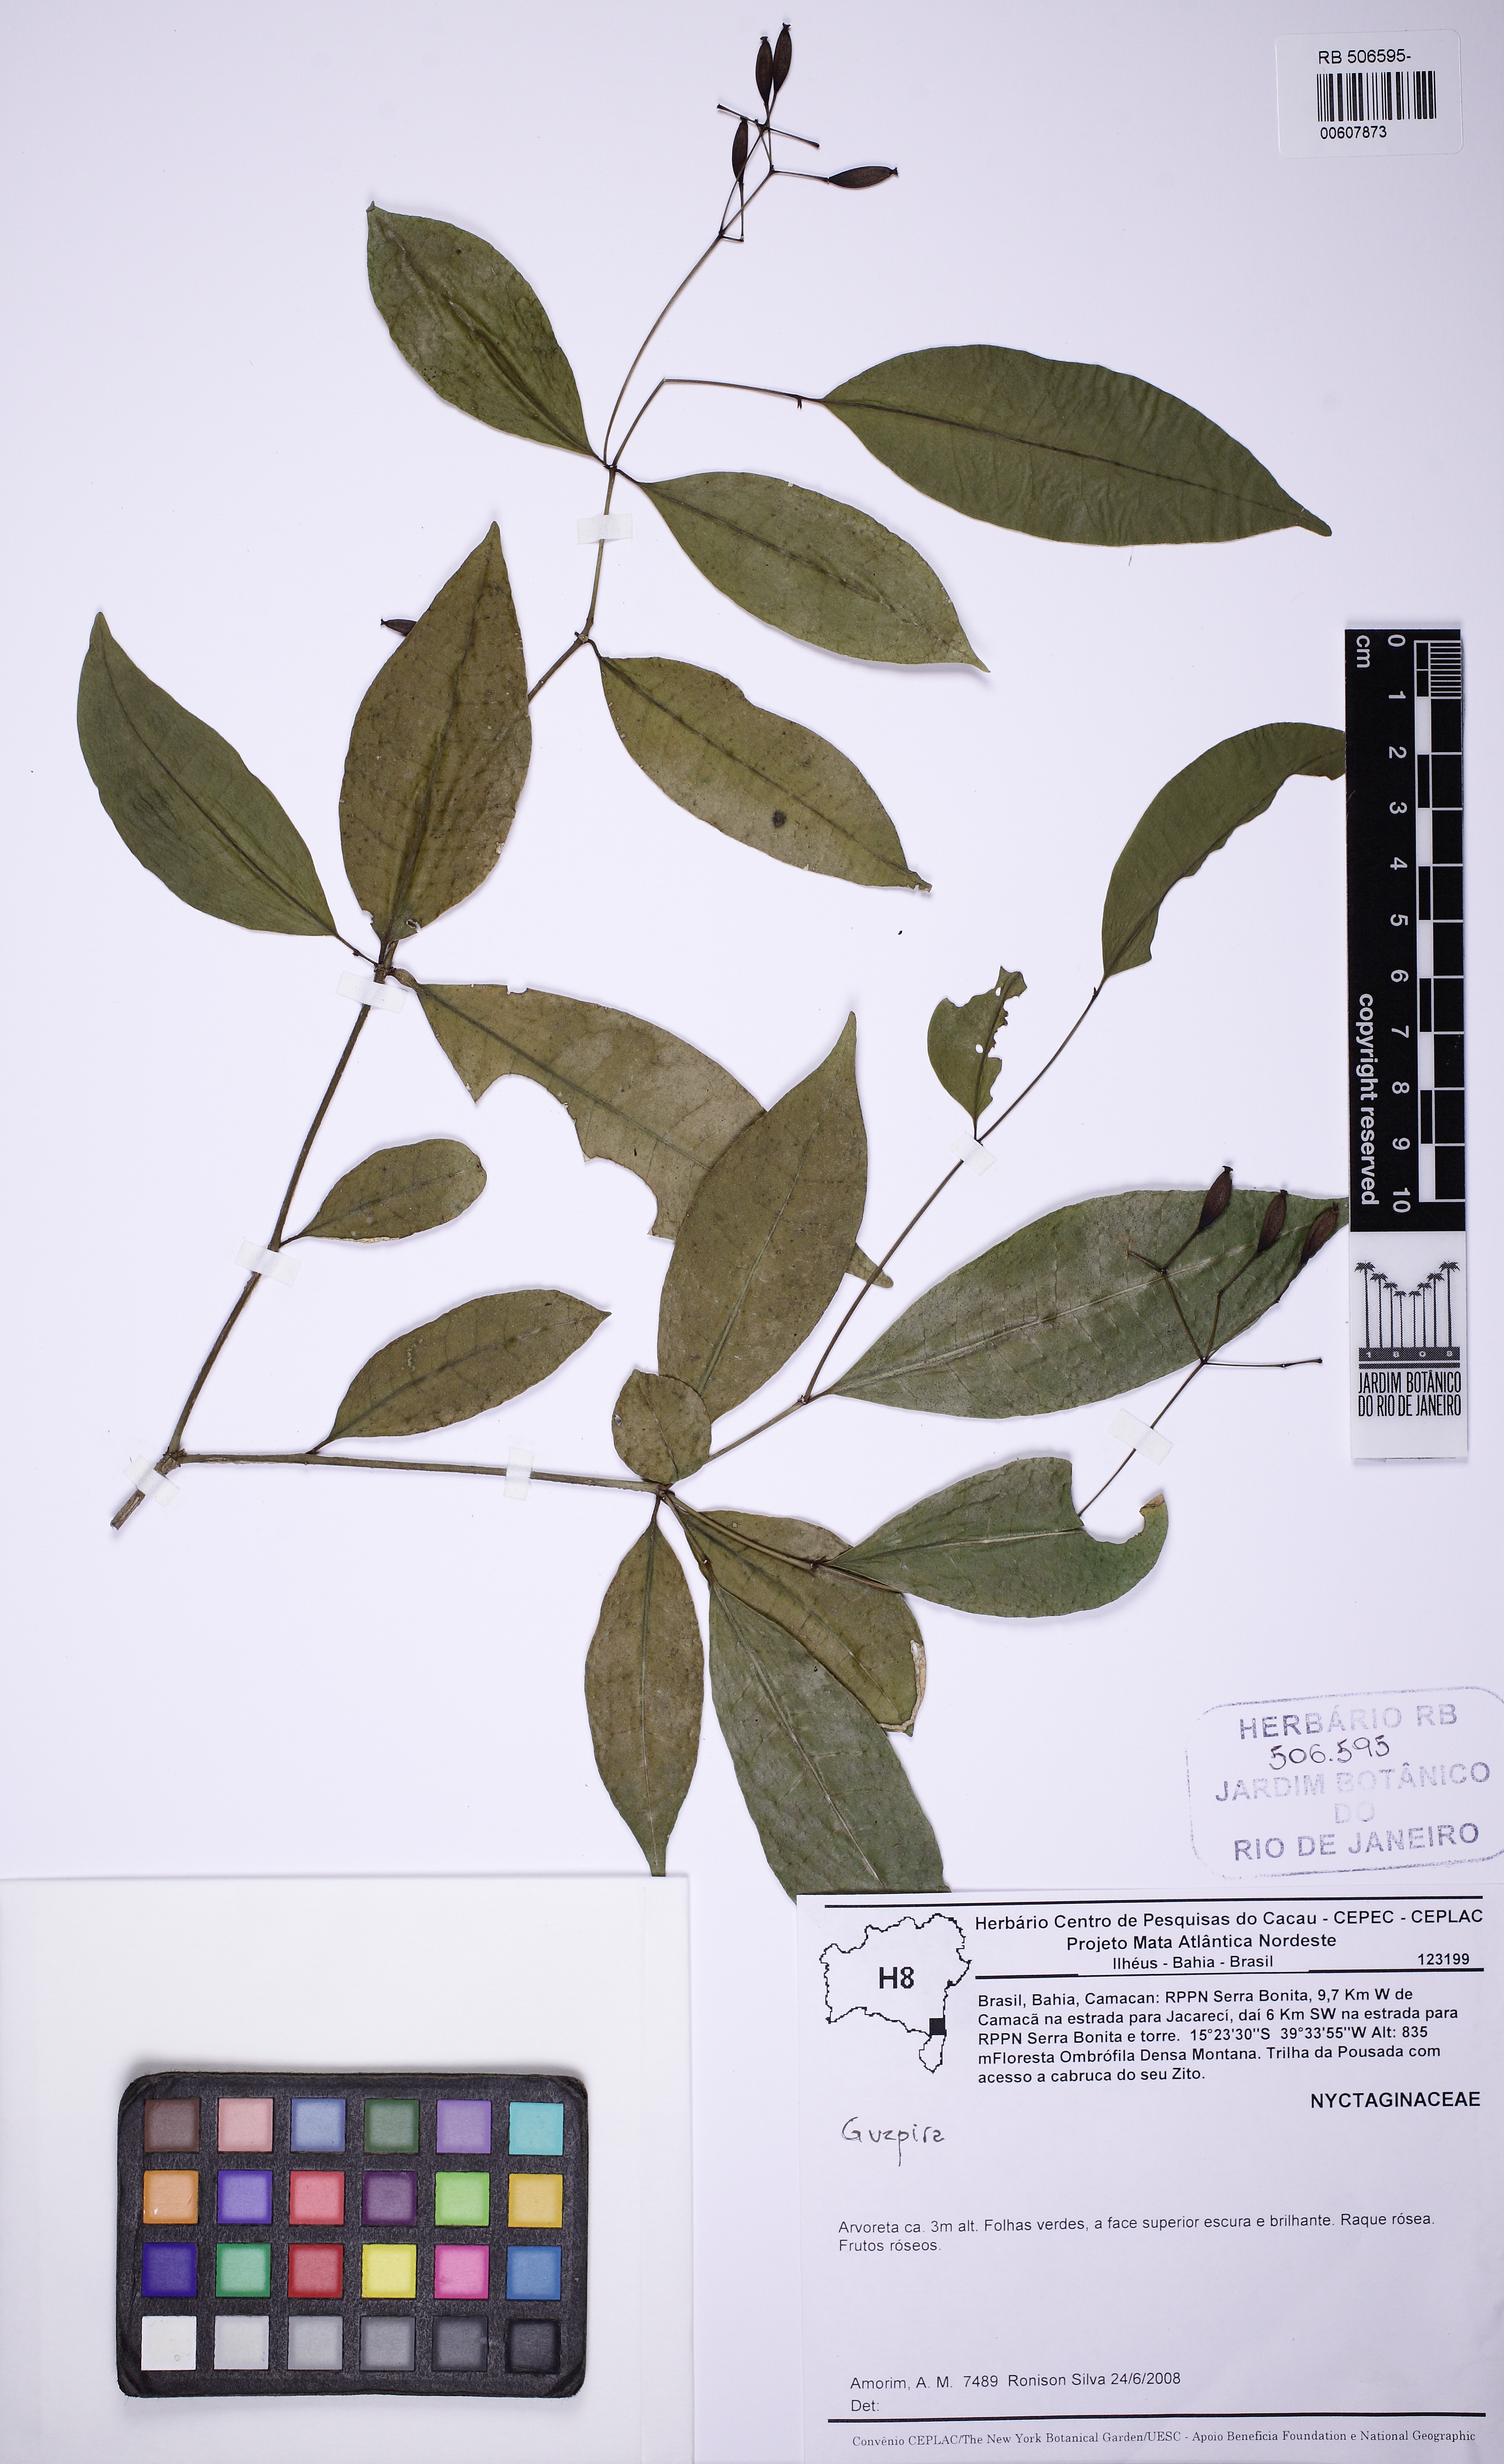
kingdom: Plantae
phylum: Tracheophyta
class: Magnoliopsida
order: Caryophyllales
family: Nyctaginaceae
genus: Guapira
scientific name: Guapira opposita
